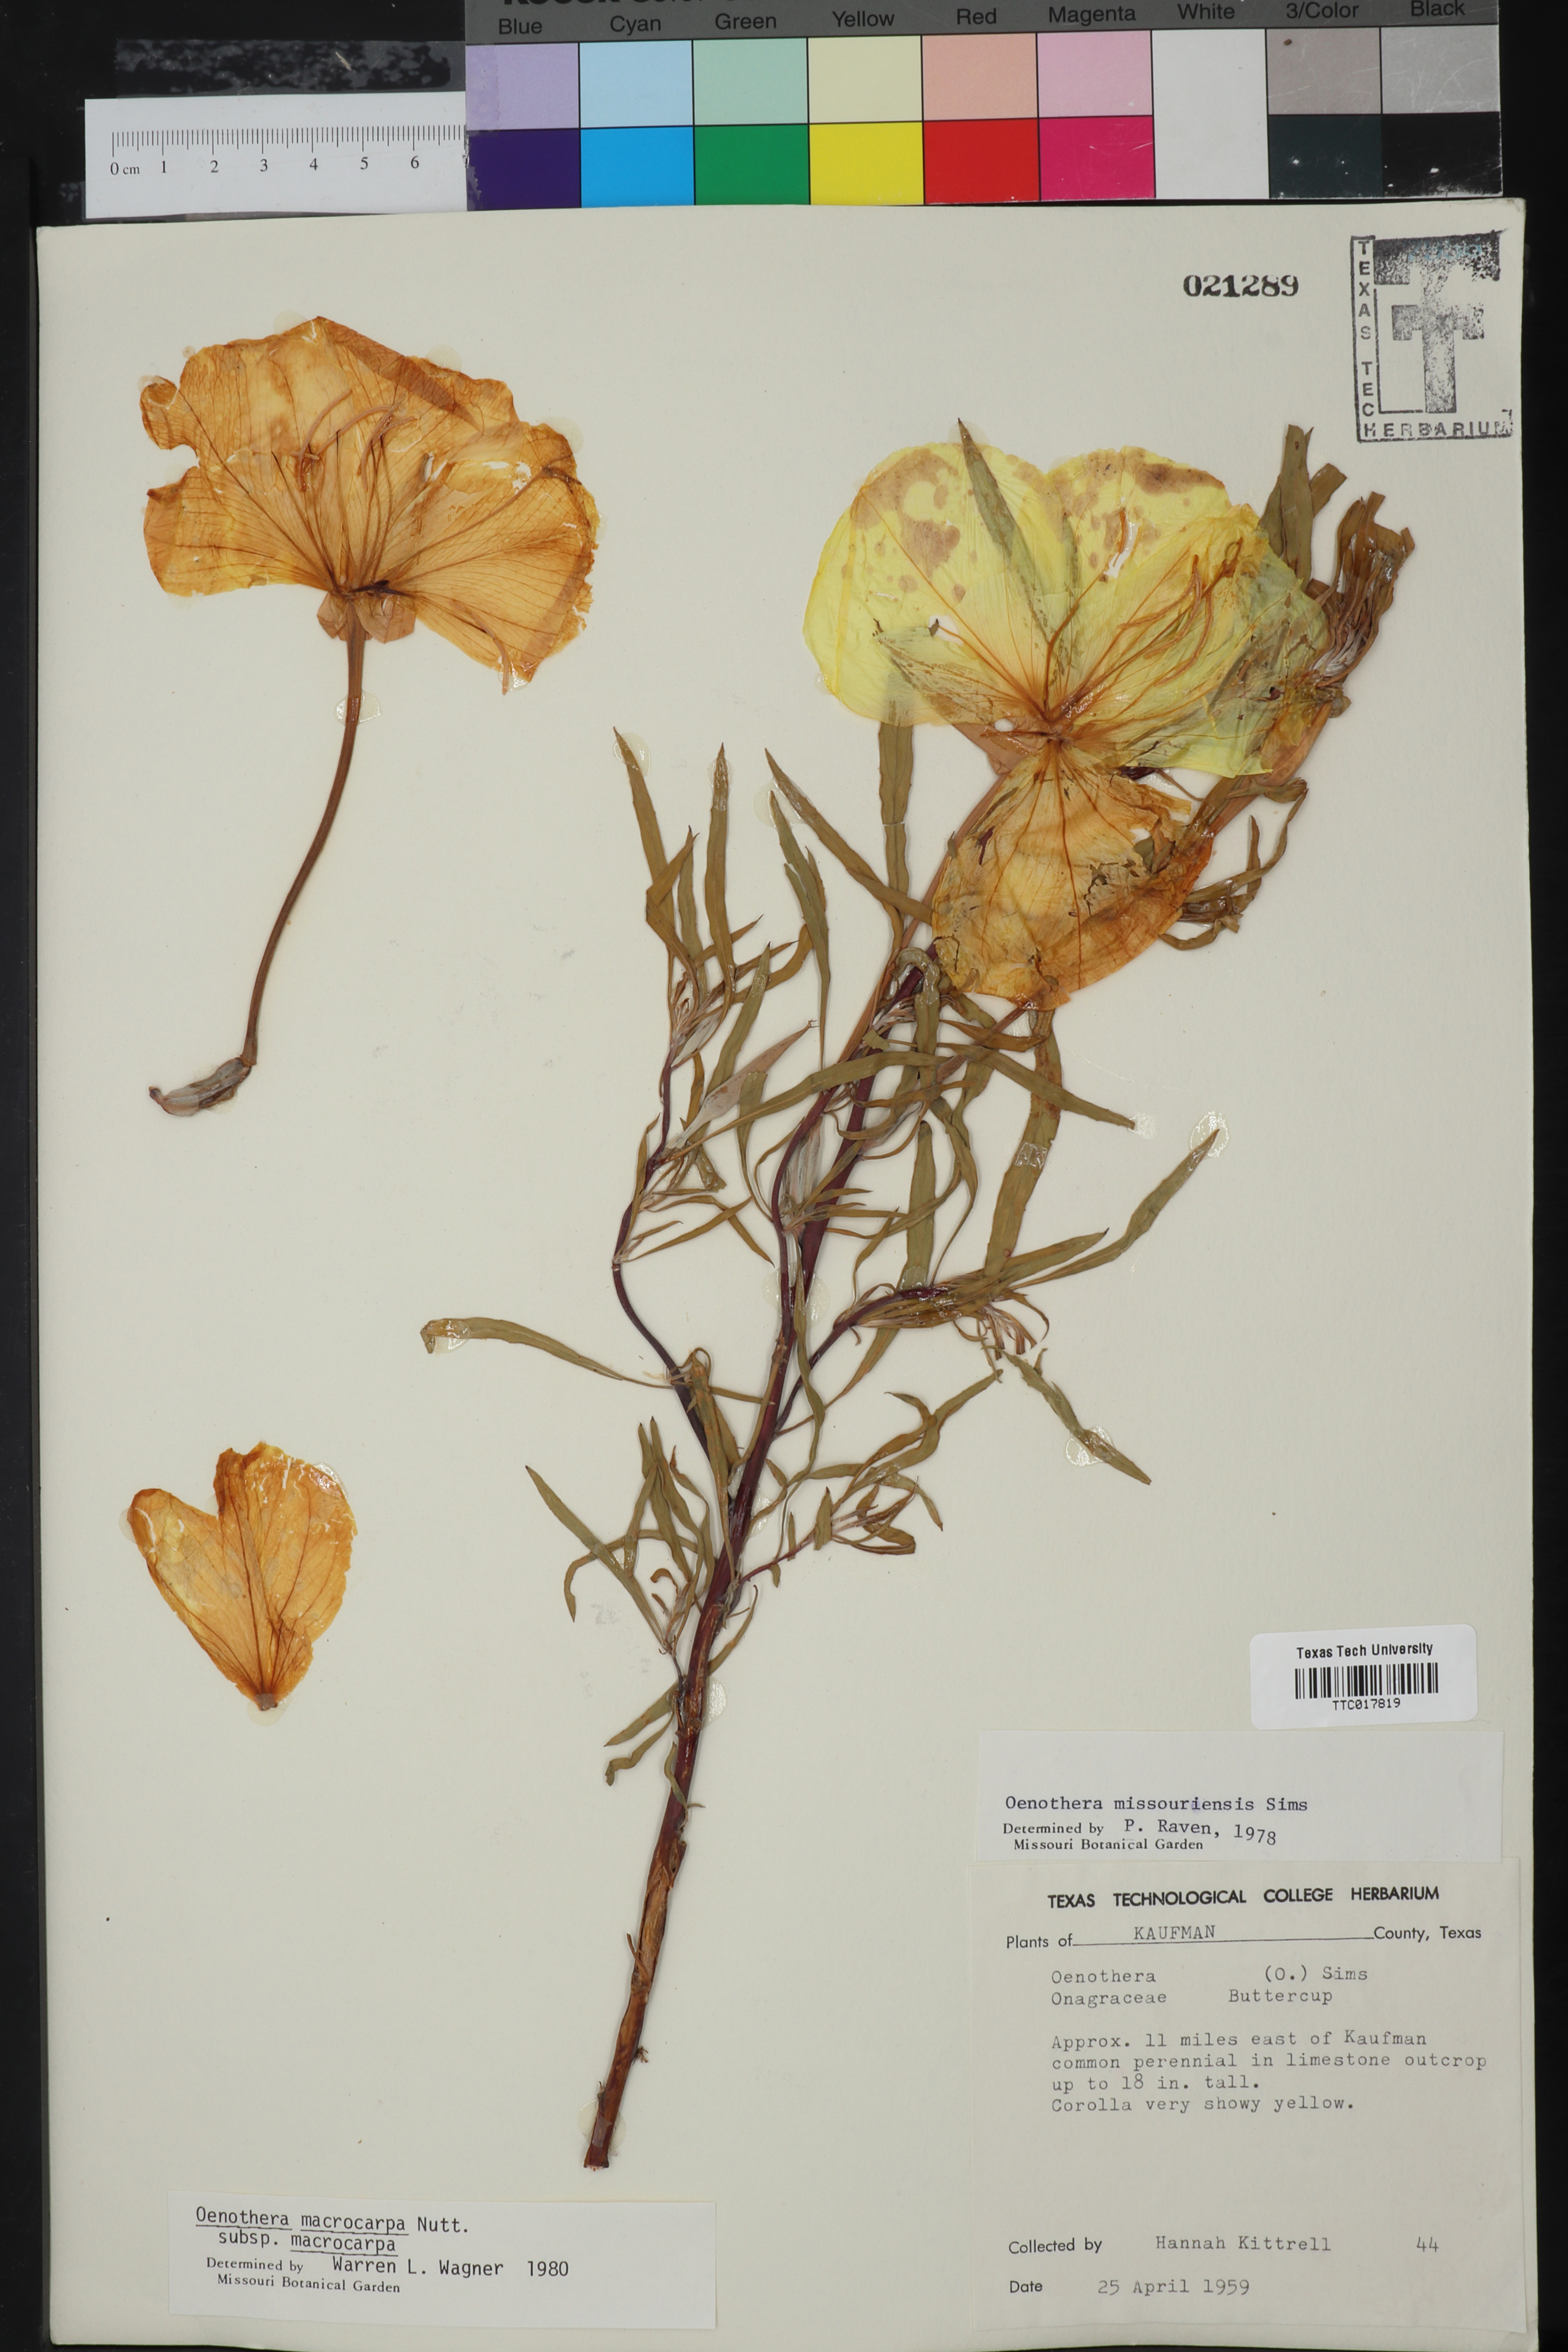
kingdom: Plantae
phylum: Tracheophyta
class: Magnoliopsida
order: Myrtales
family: Onagraceae
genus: Oenothera
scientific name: Oenothera macrocarpa
